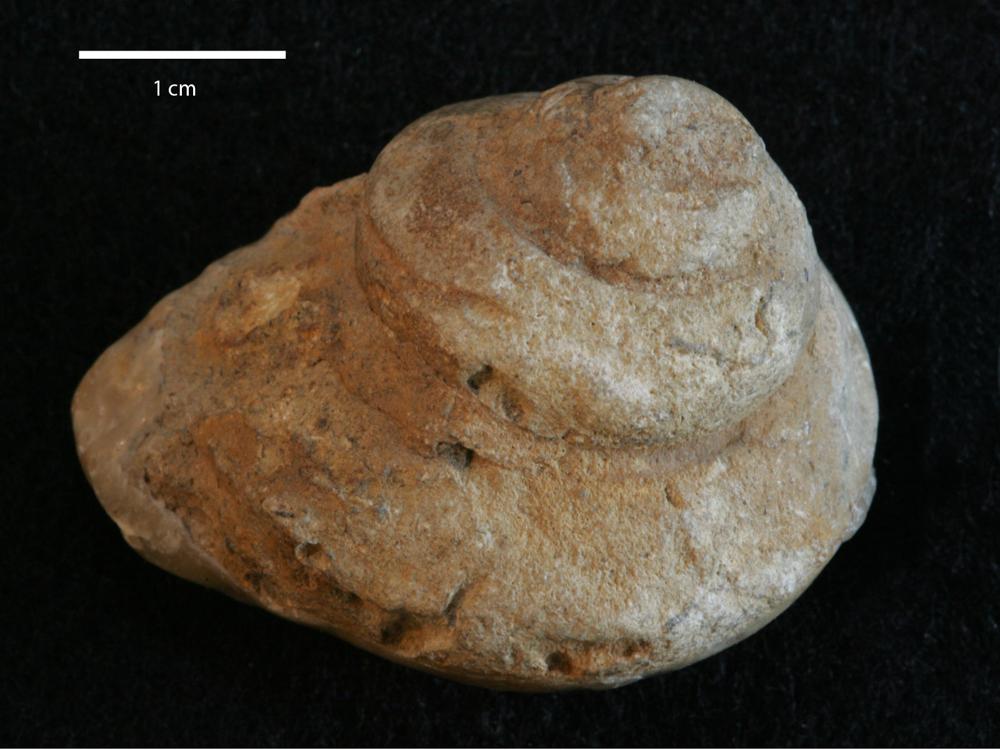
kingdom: Animalia
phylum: Mollusca
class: Gastropoda
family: Lophospiridae
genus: Lophospira
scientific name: Lophospira
